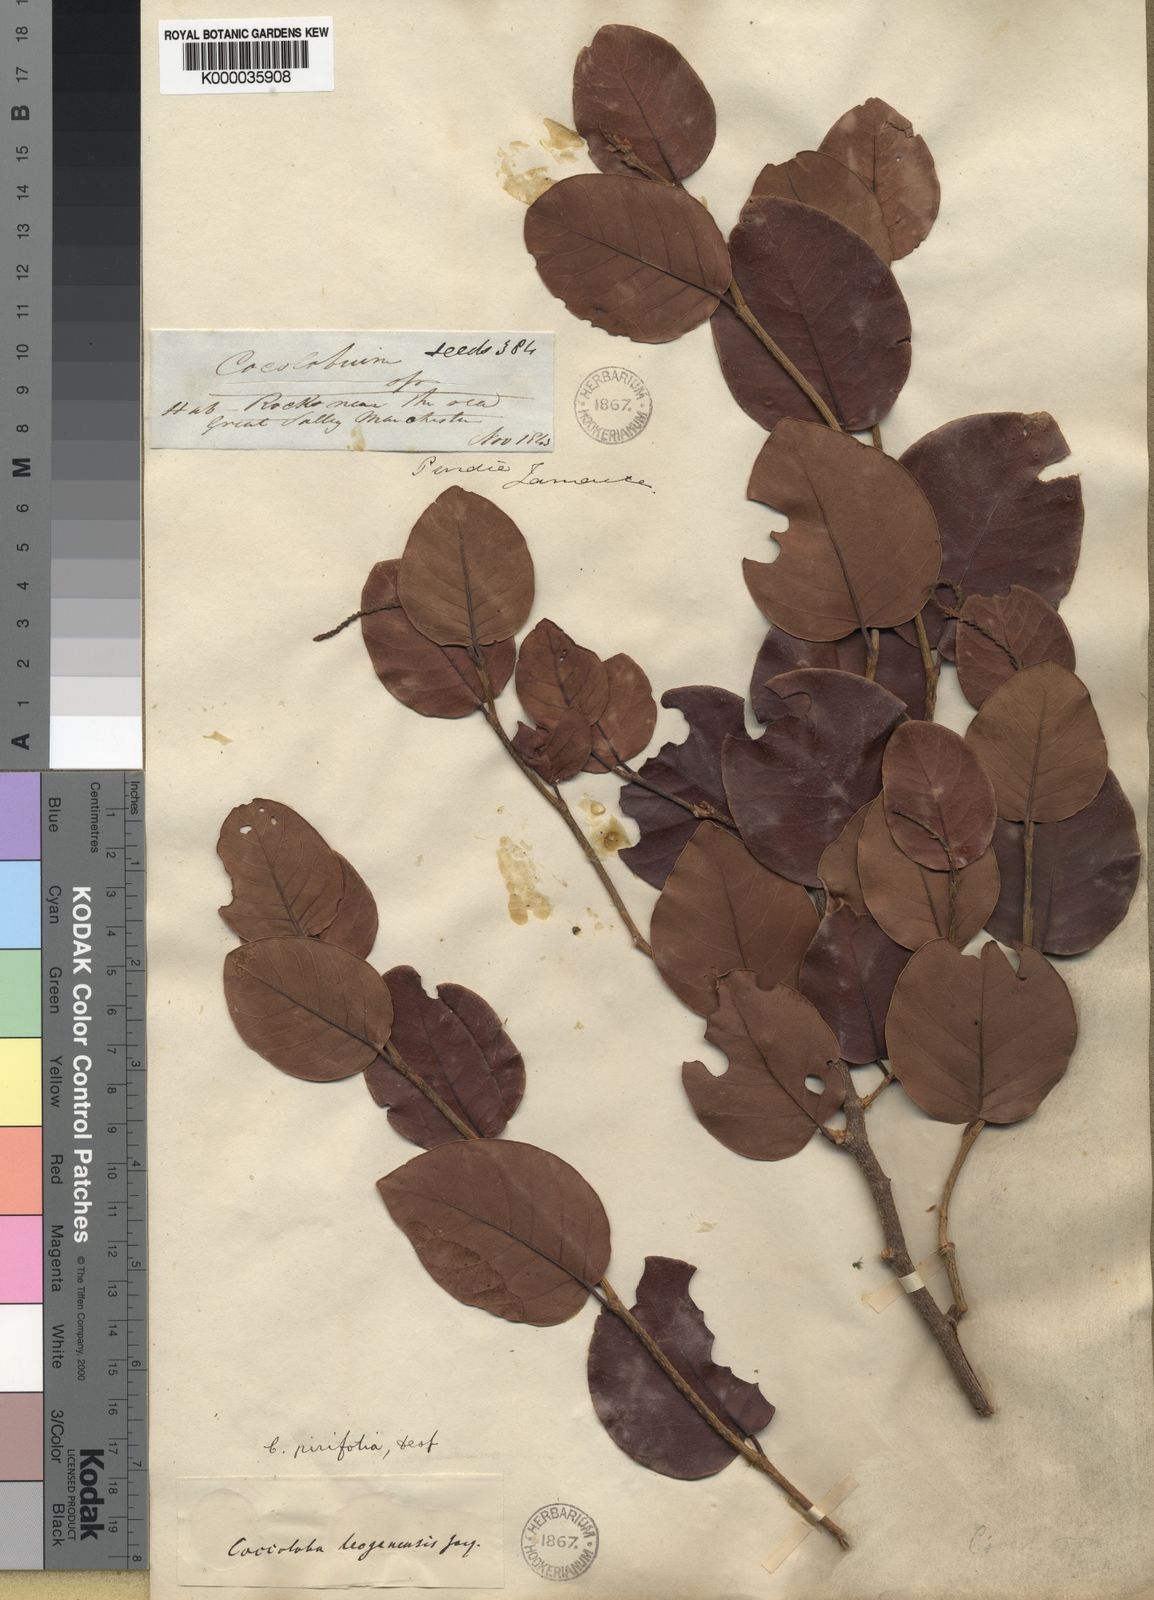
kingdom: Plantae
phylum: Tracheophyta
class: Magnoliopsida
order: Caryophyllales
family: Polygonaceae
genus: Coccoloba
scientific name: Coccoloba pyrifolia
